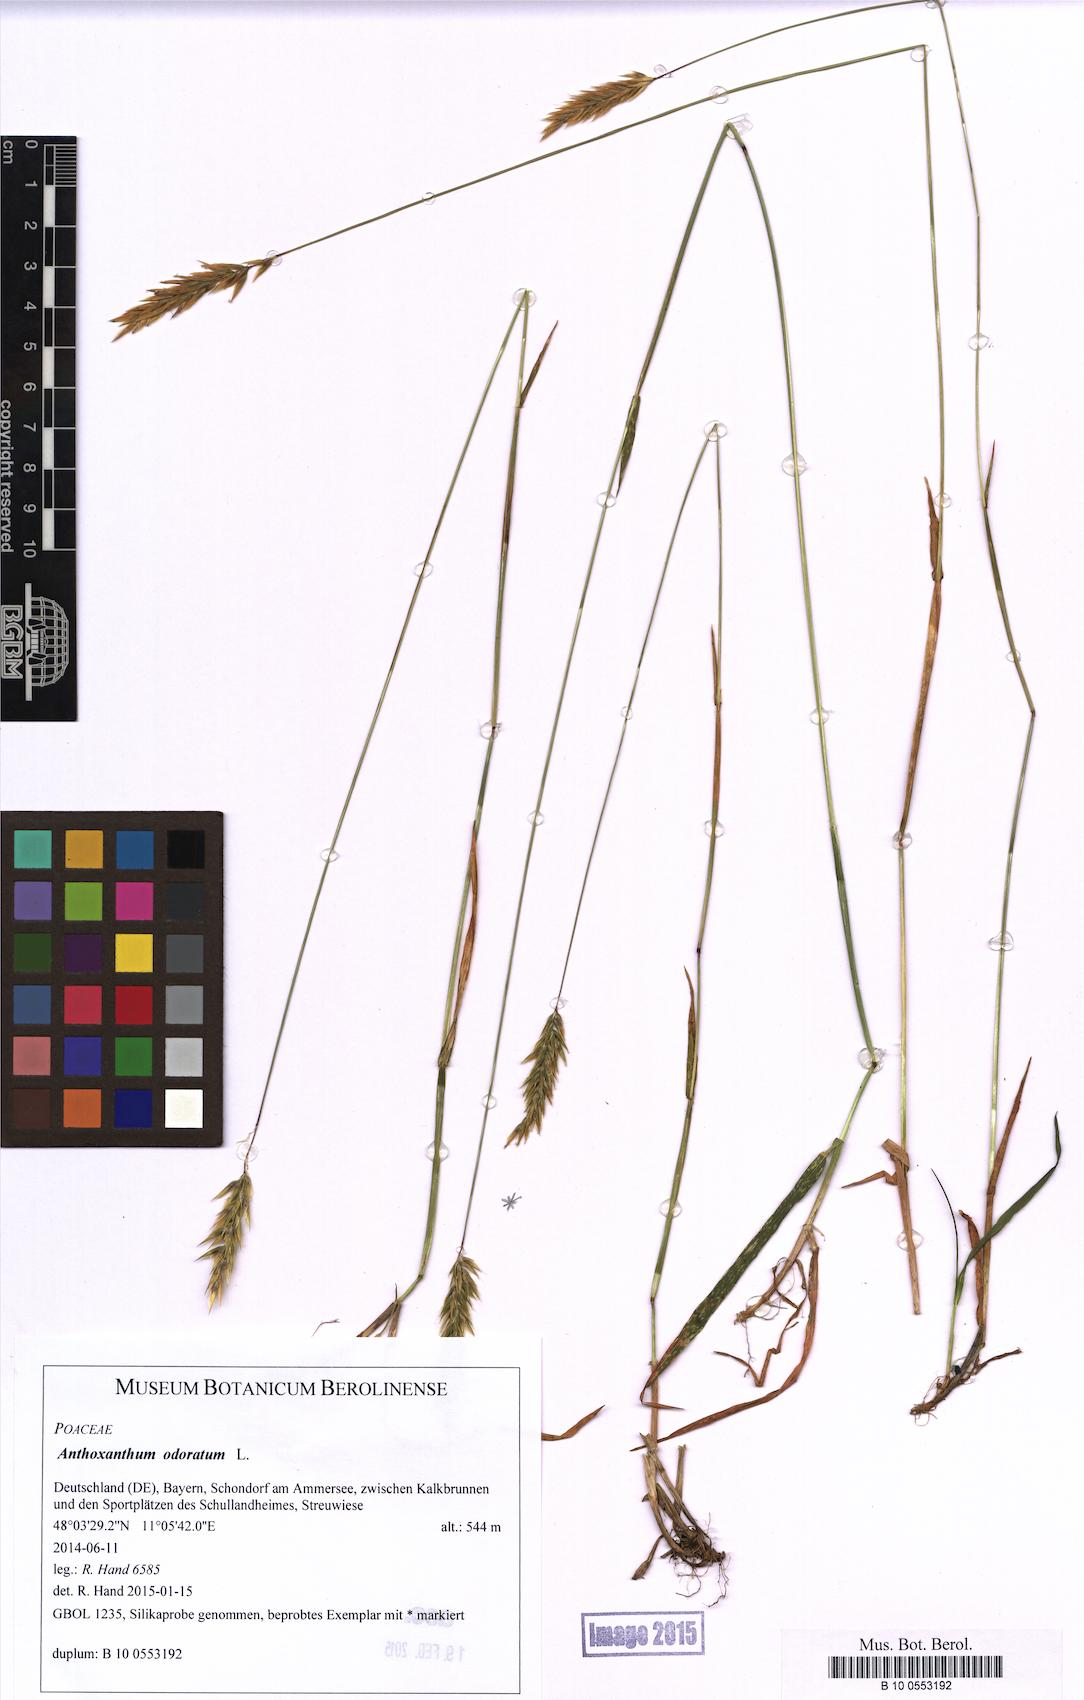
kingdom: Plantae
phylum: Tracheophyta
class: Liliopsida
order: Poales
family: Poaceae
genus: Anthoxanthum
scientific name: Anthoxanthum odoratum
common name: Sweet vernalgrass
